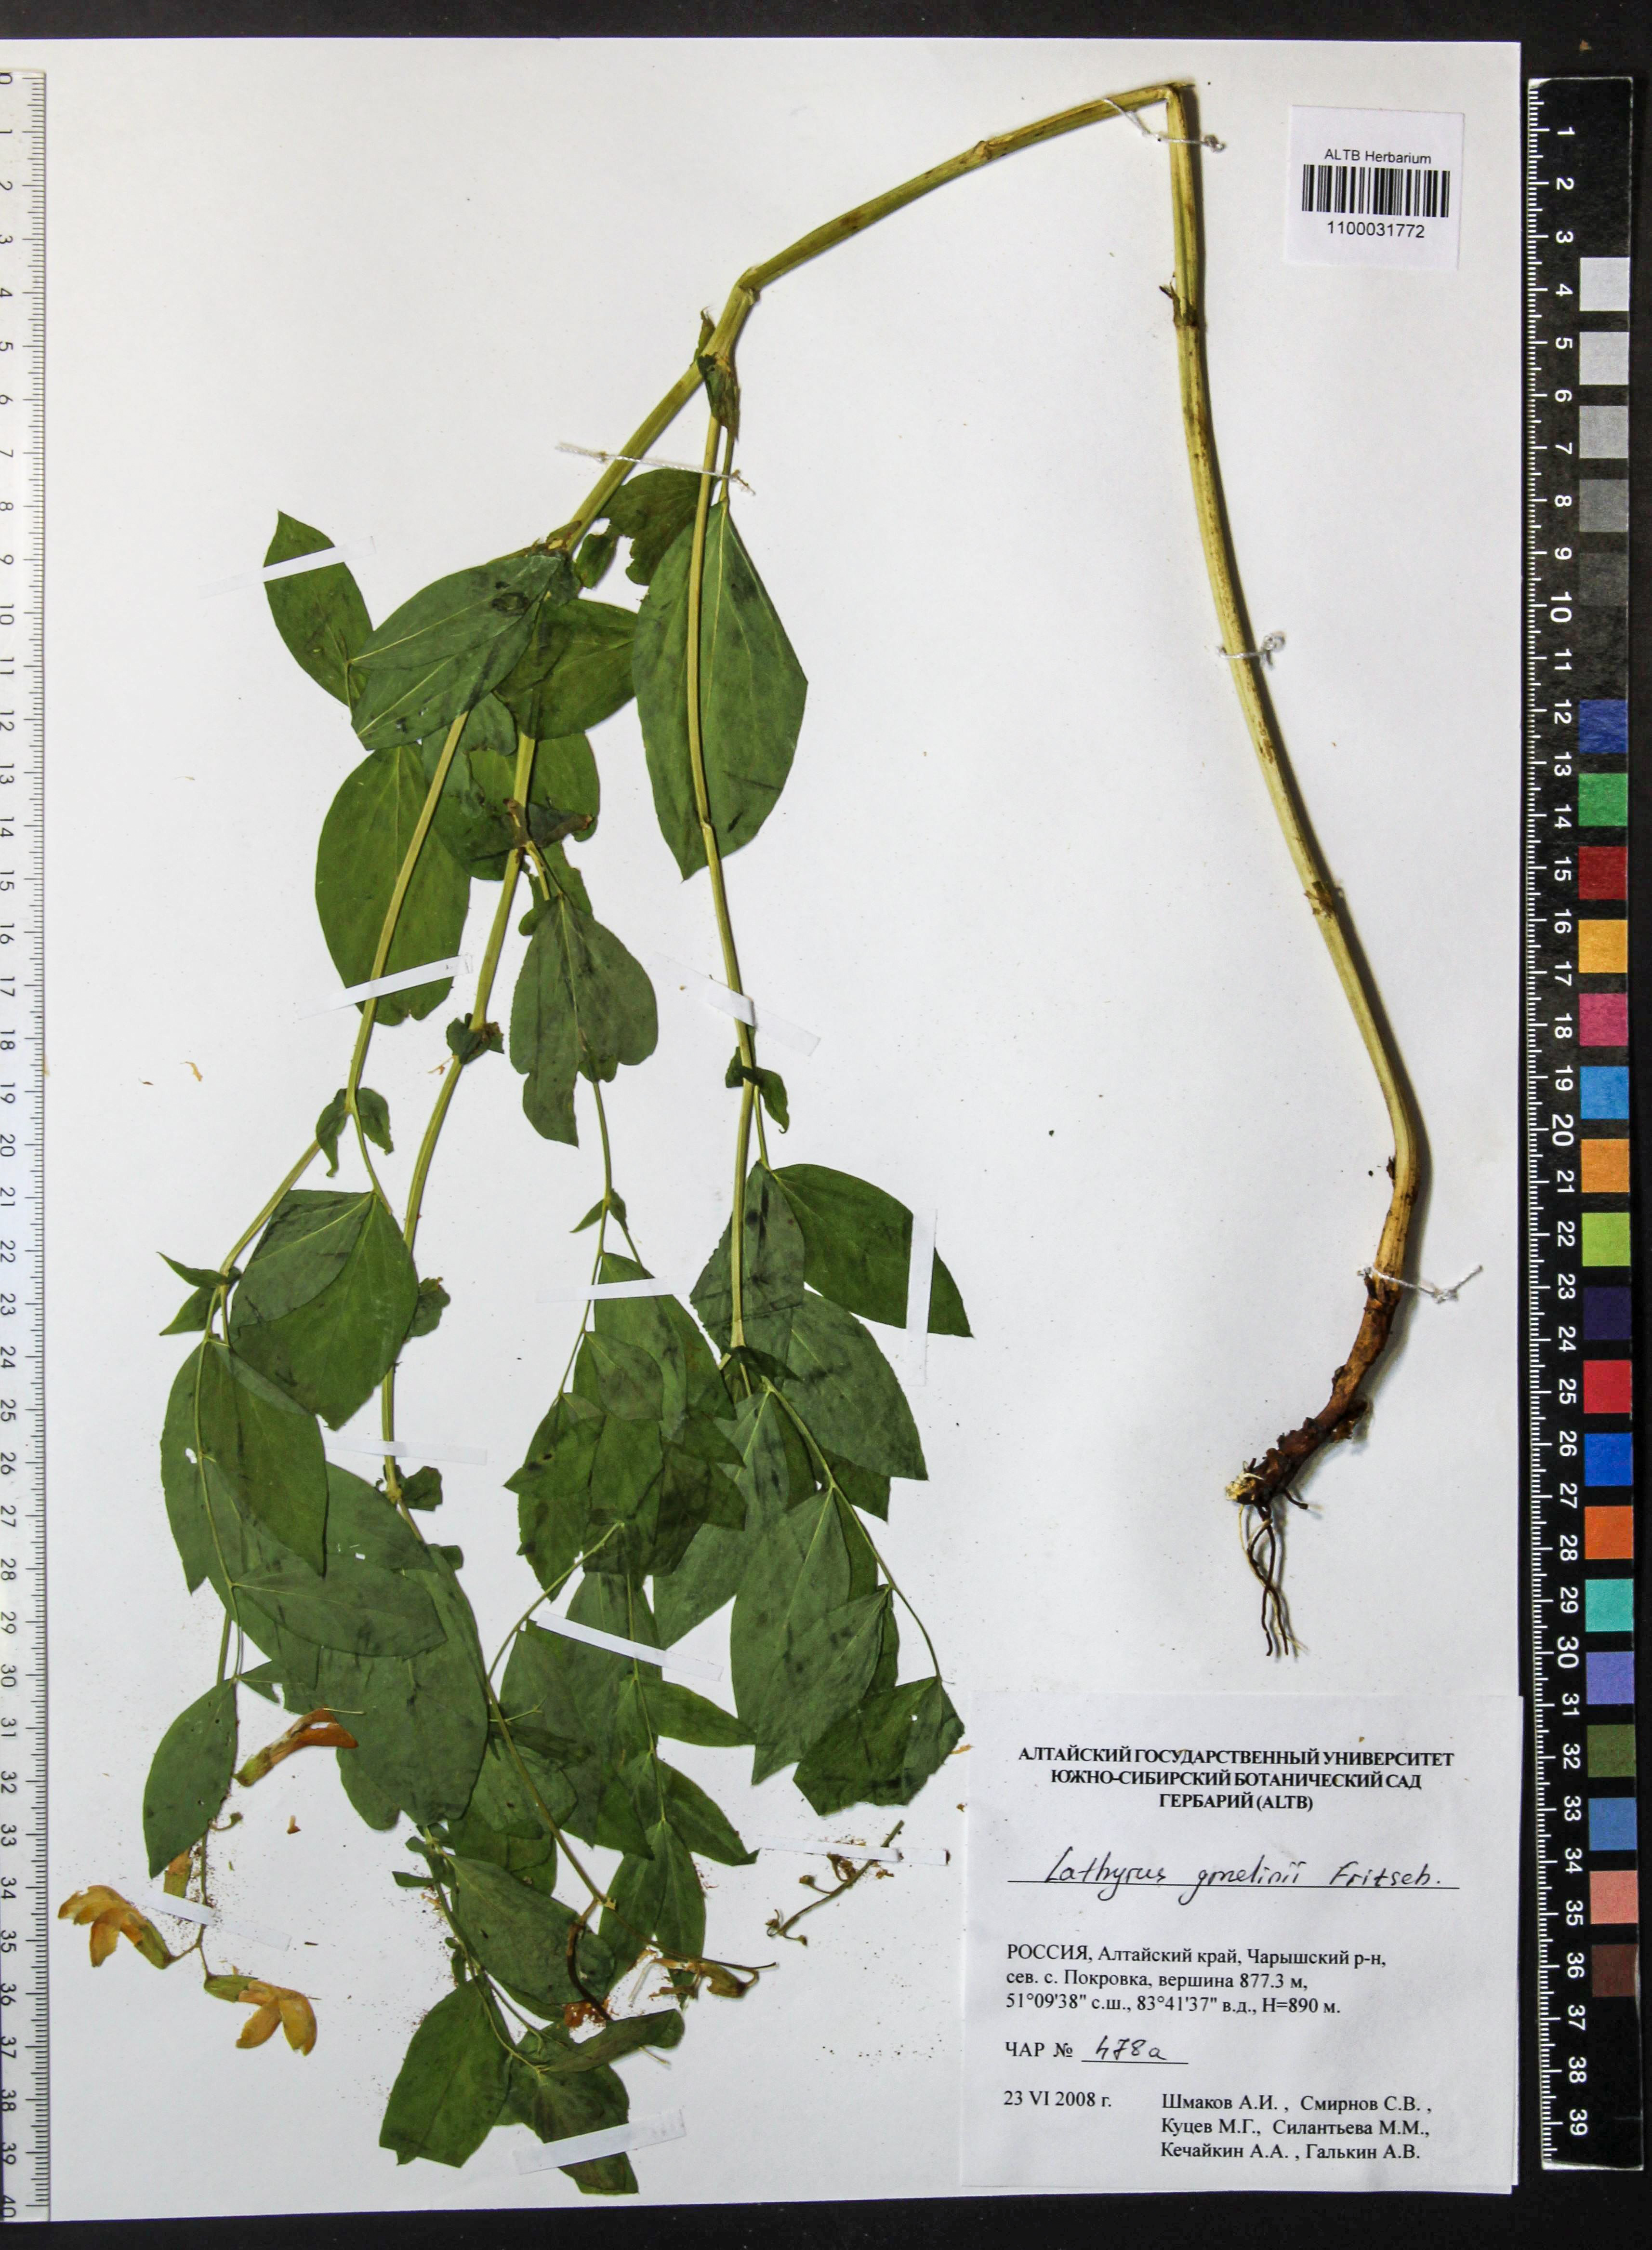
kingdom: Plantae
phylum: Tracheophyta
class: Magnoliopsida
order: Fabales
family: Fabaceae
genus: Lathyrus
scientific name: Lathyrus gmelinii
